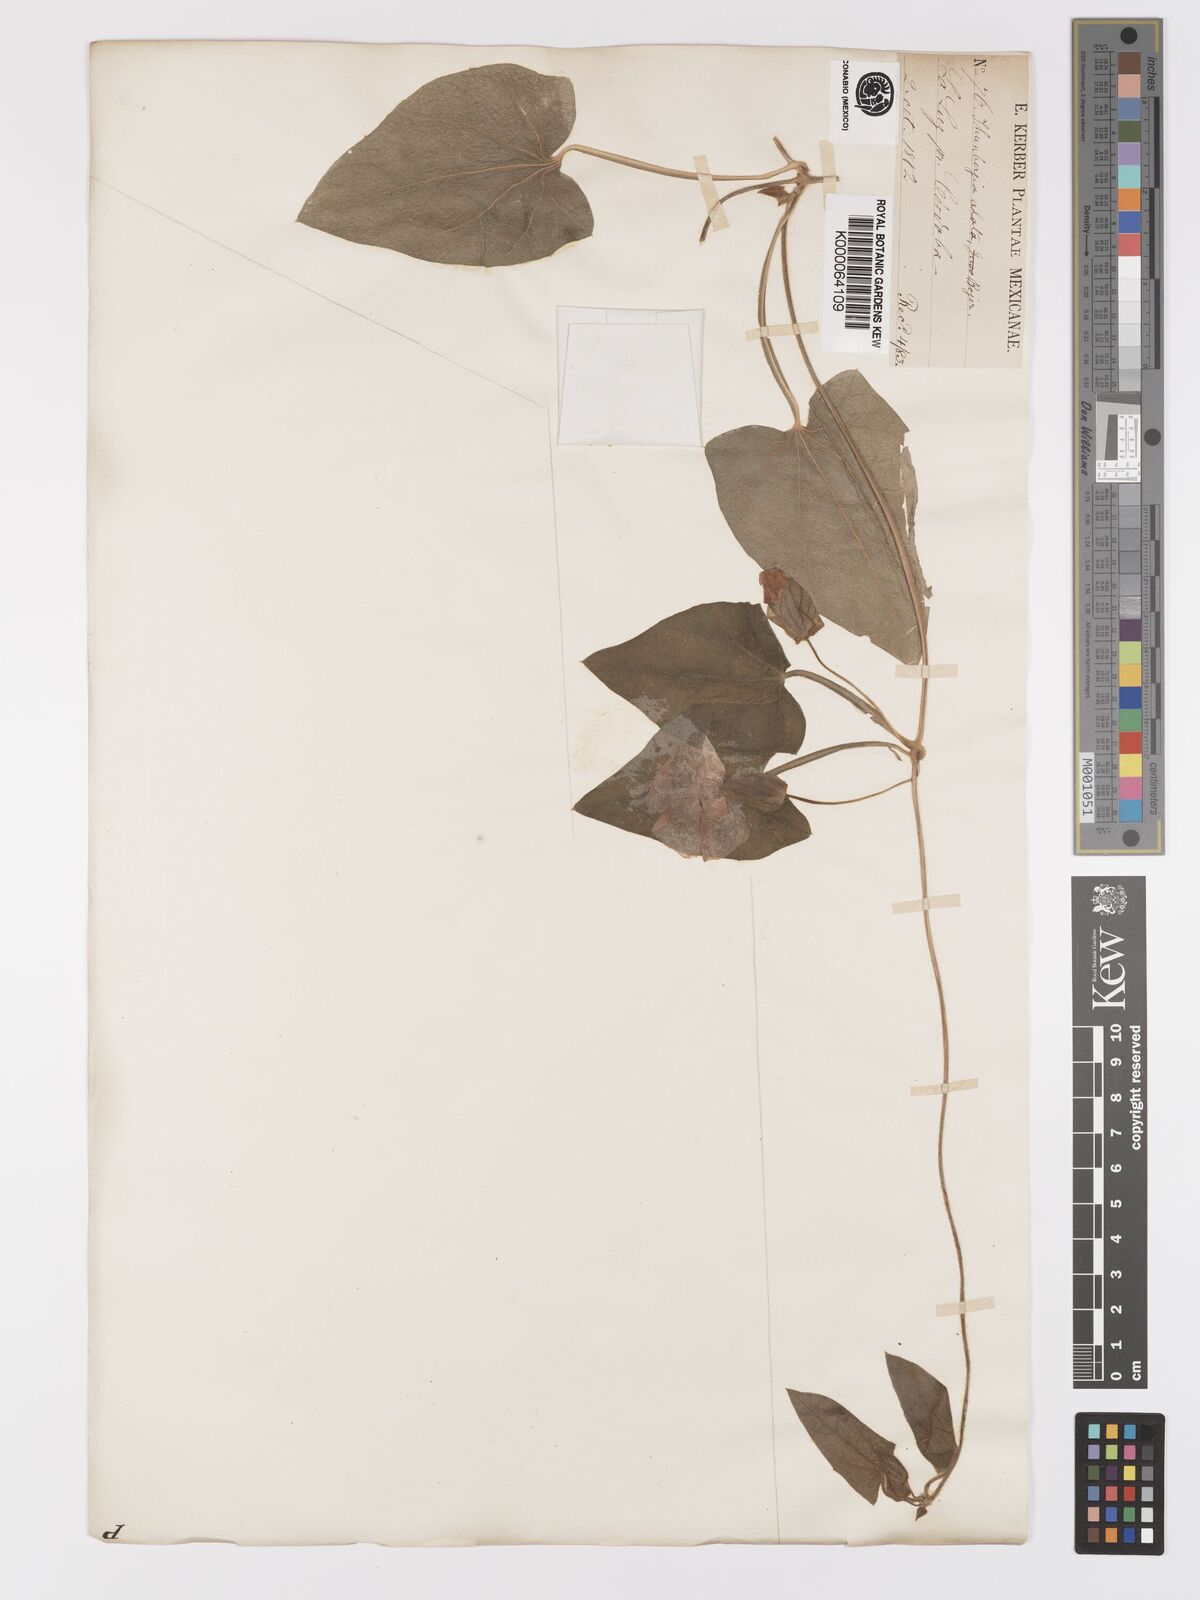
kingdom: Plantae
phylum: Tracheophyta
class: Magnoliopsida
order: Lamiales
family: Acanthaceae
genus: Thunbergia
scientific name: Thunbergia alata
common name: Blackeyed susan vine
